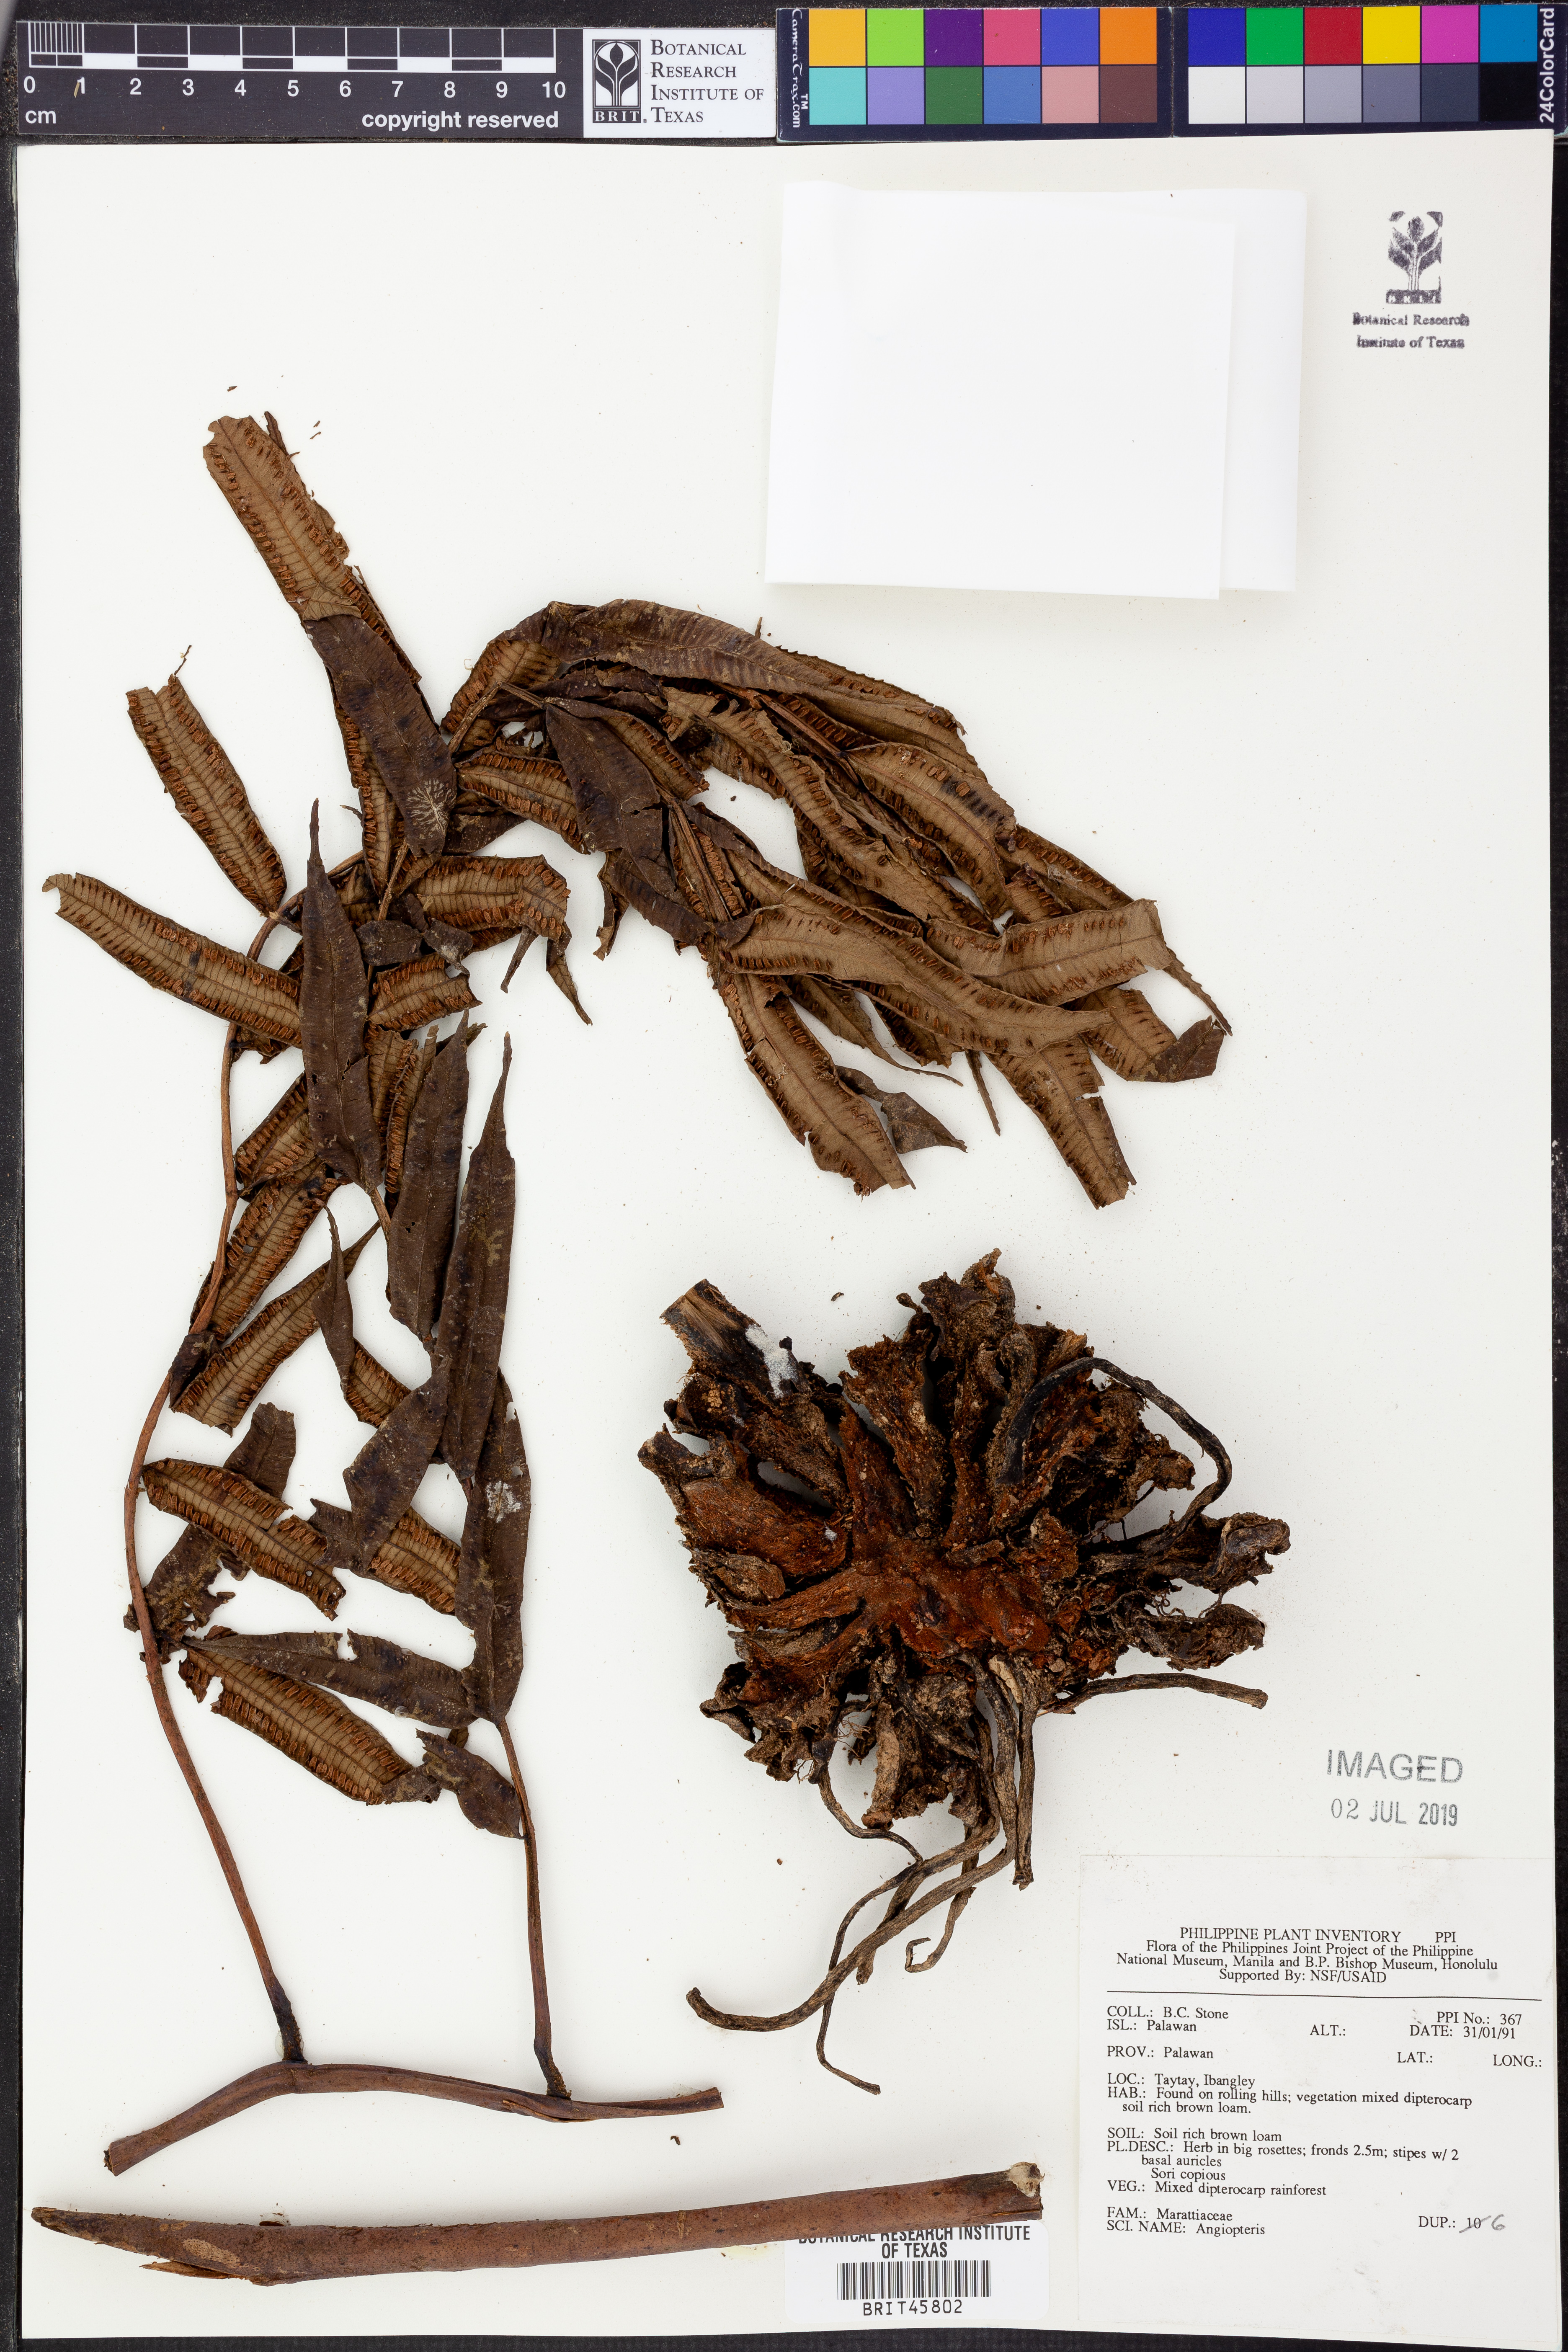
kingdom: Plantae
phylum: Tracheophyta
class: Polypodiopsida
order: Marattiales
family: Marattiaceae
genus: Angiopteris
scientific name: Angiopteris
